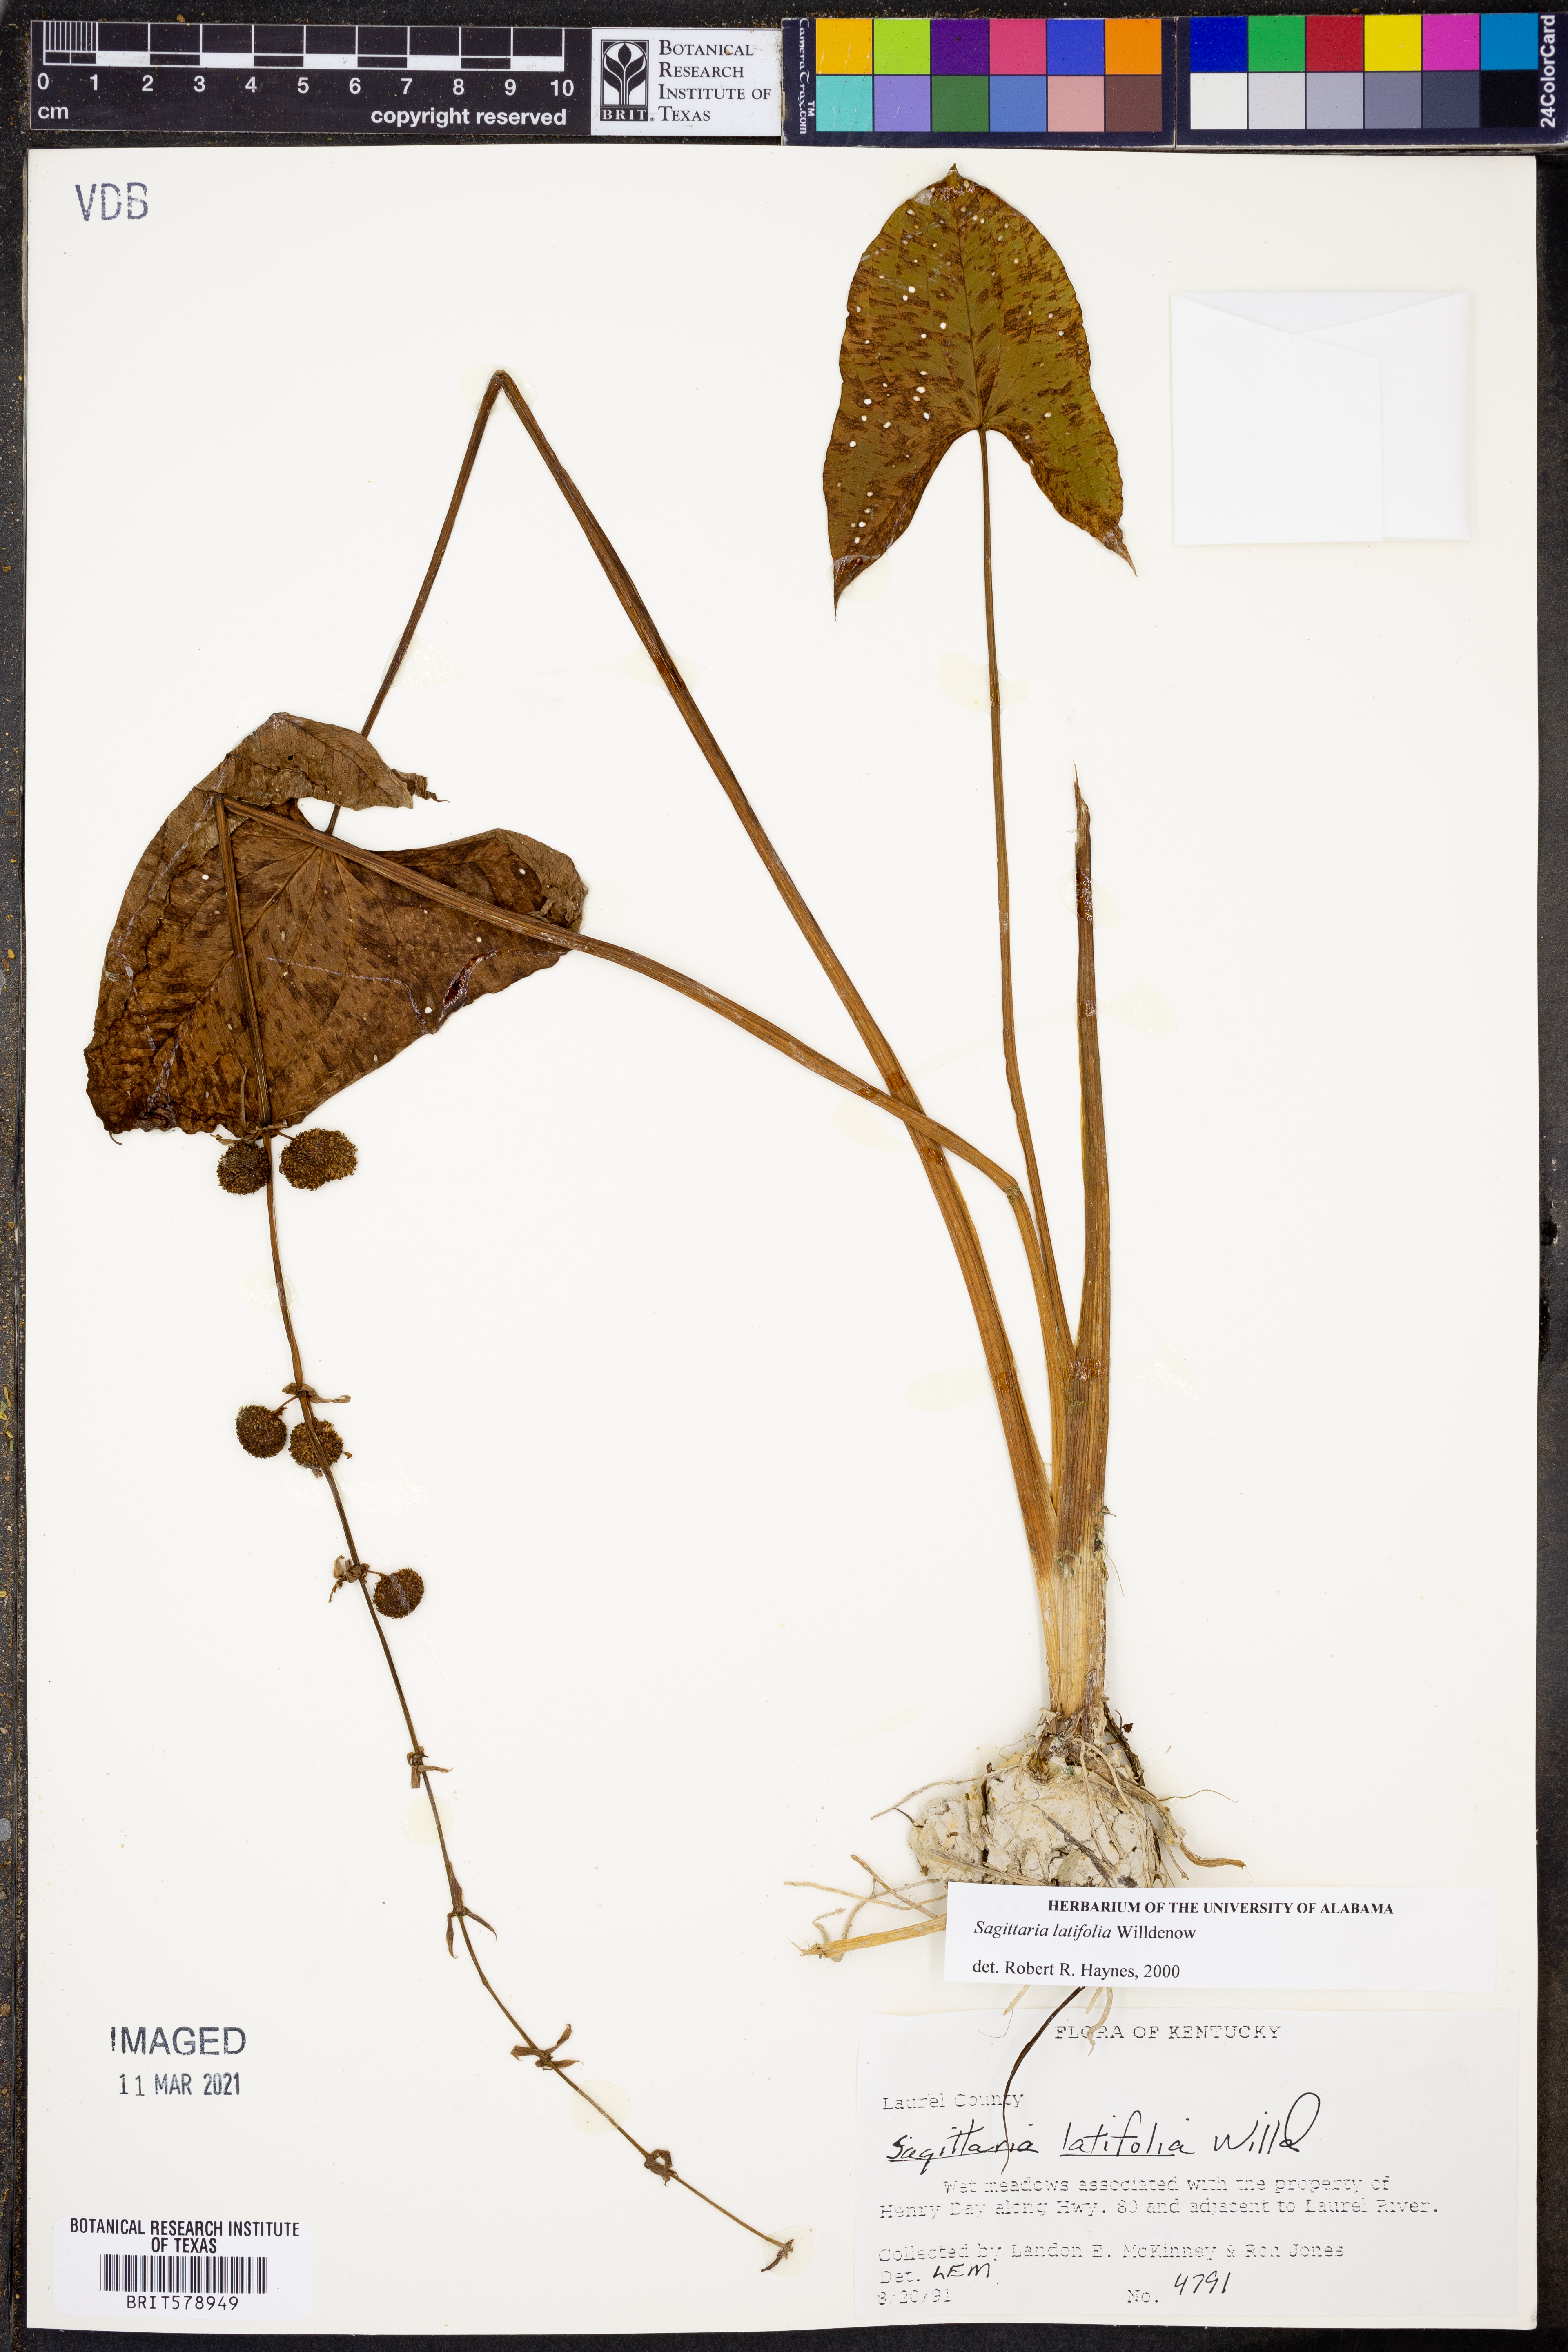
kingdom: Plantae
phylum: Tracheophyta
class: Liliopsida
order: Alismatales
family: Alismataceae
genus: Sagittaria
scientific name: Sagittaria latifolia
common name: Duck-potato
